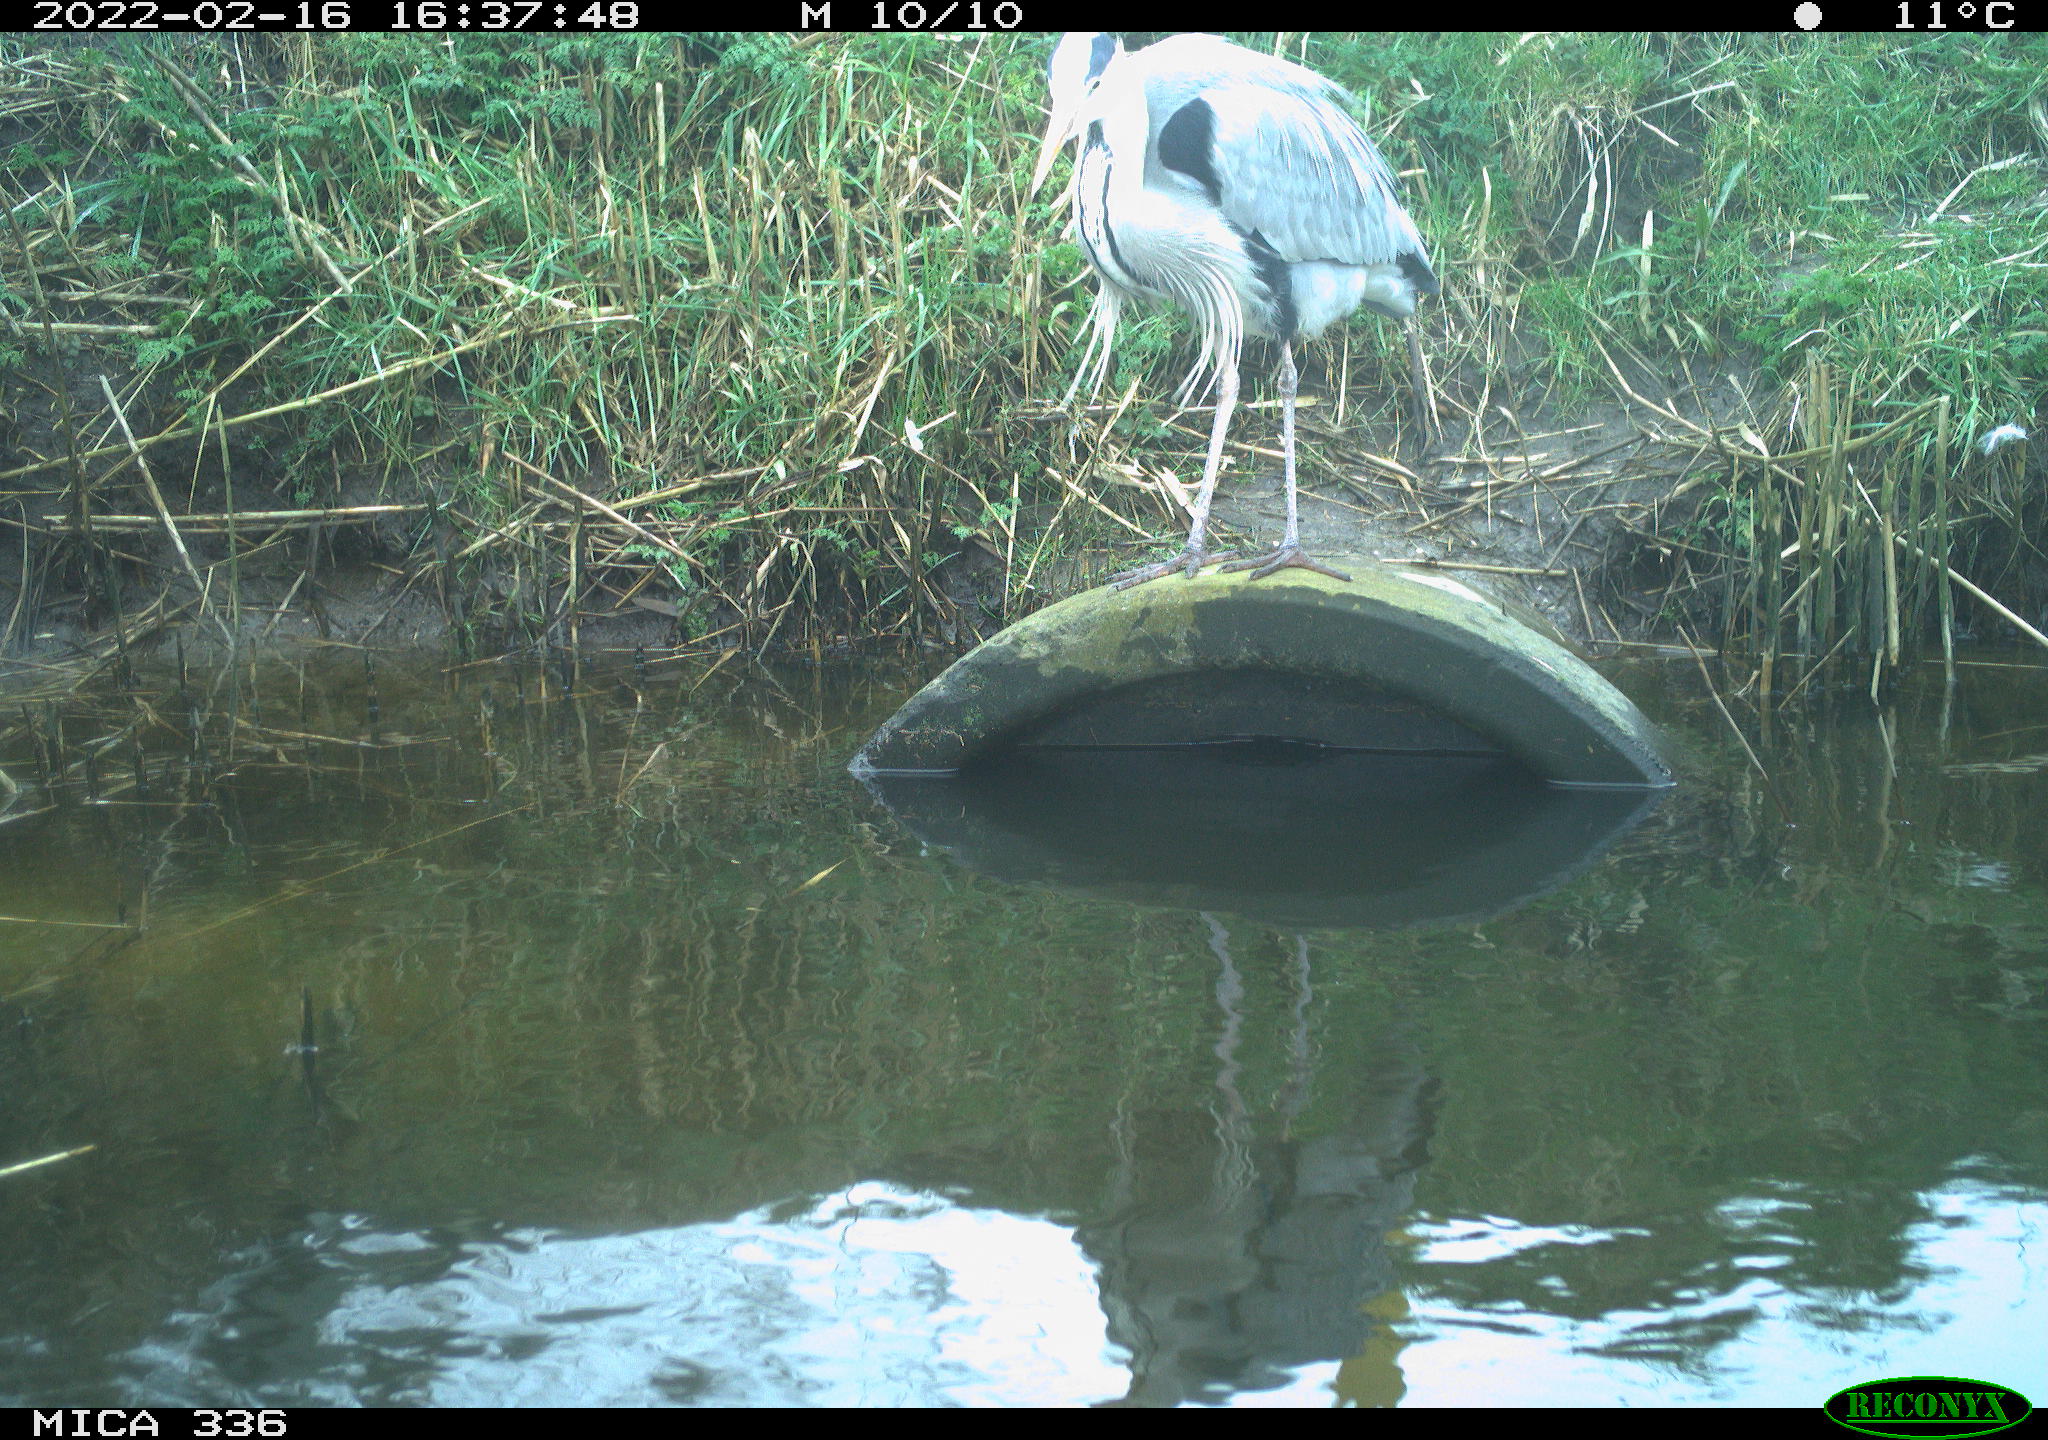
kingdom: Animalia
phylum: Chordata
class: Aves
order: Podicipediformes
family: Podicipedidae
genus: Podiceps
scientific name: Podiceps cristatus
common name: Great crested grebe
